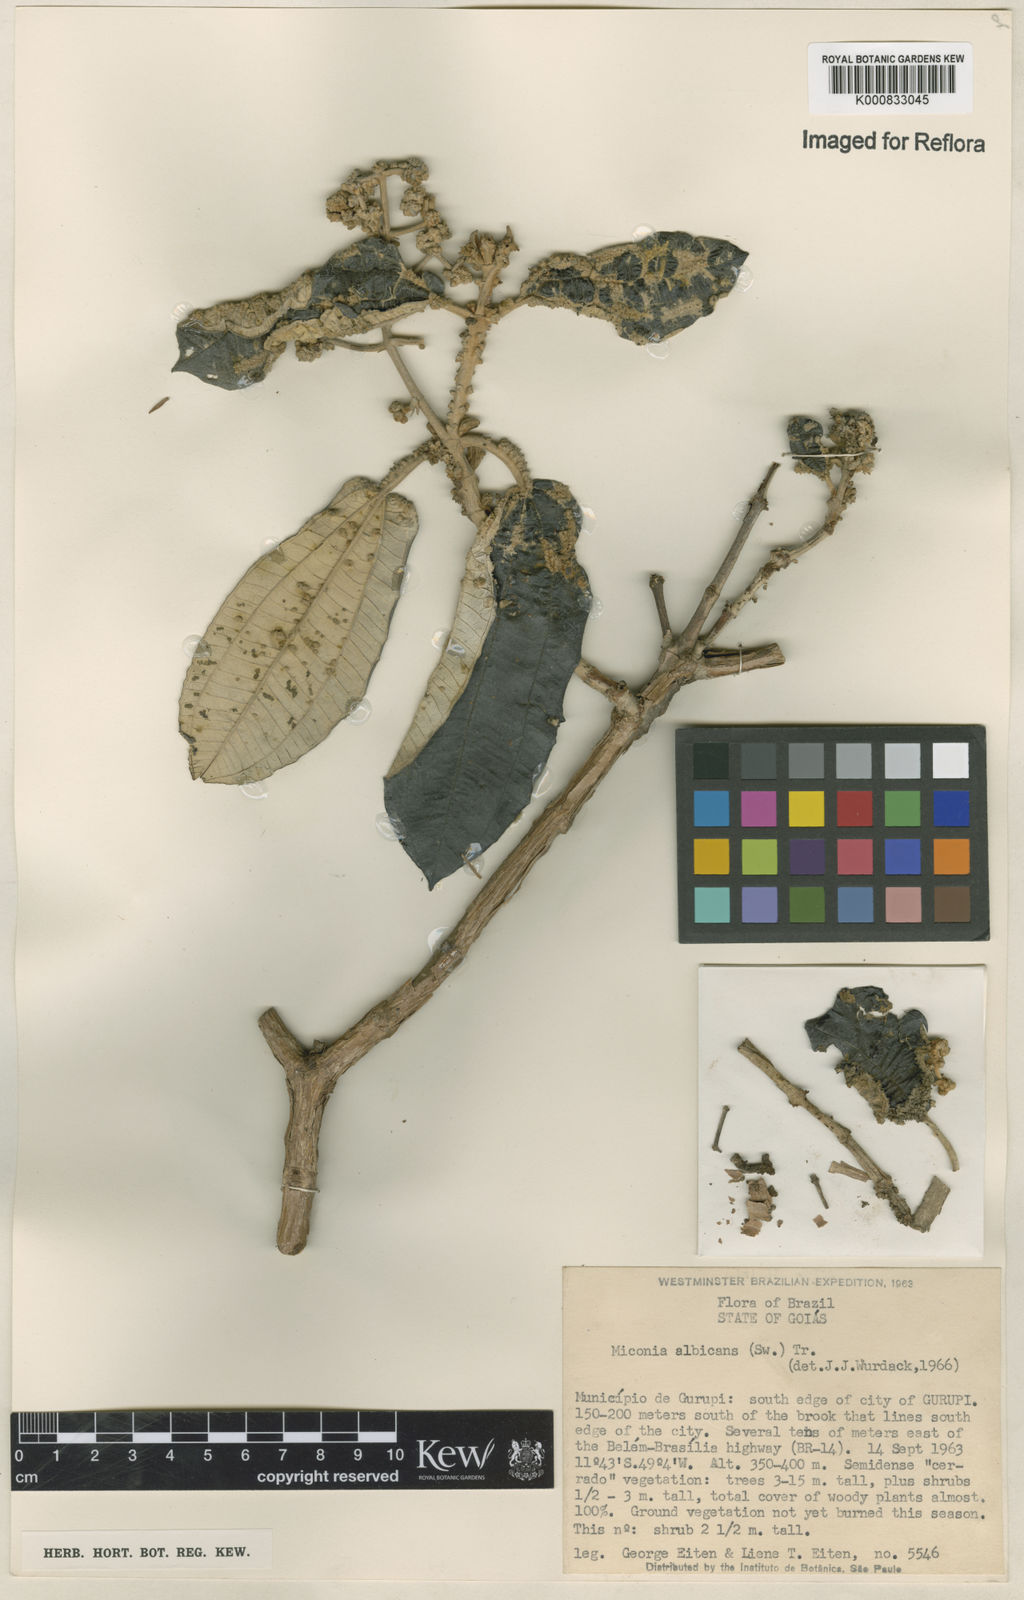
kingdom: Plantae
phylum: Tracheophyta
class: Magnoliopsida
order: Myrtales
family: Melastomataceae
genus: Miconia
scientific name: Miconia albicans
